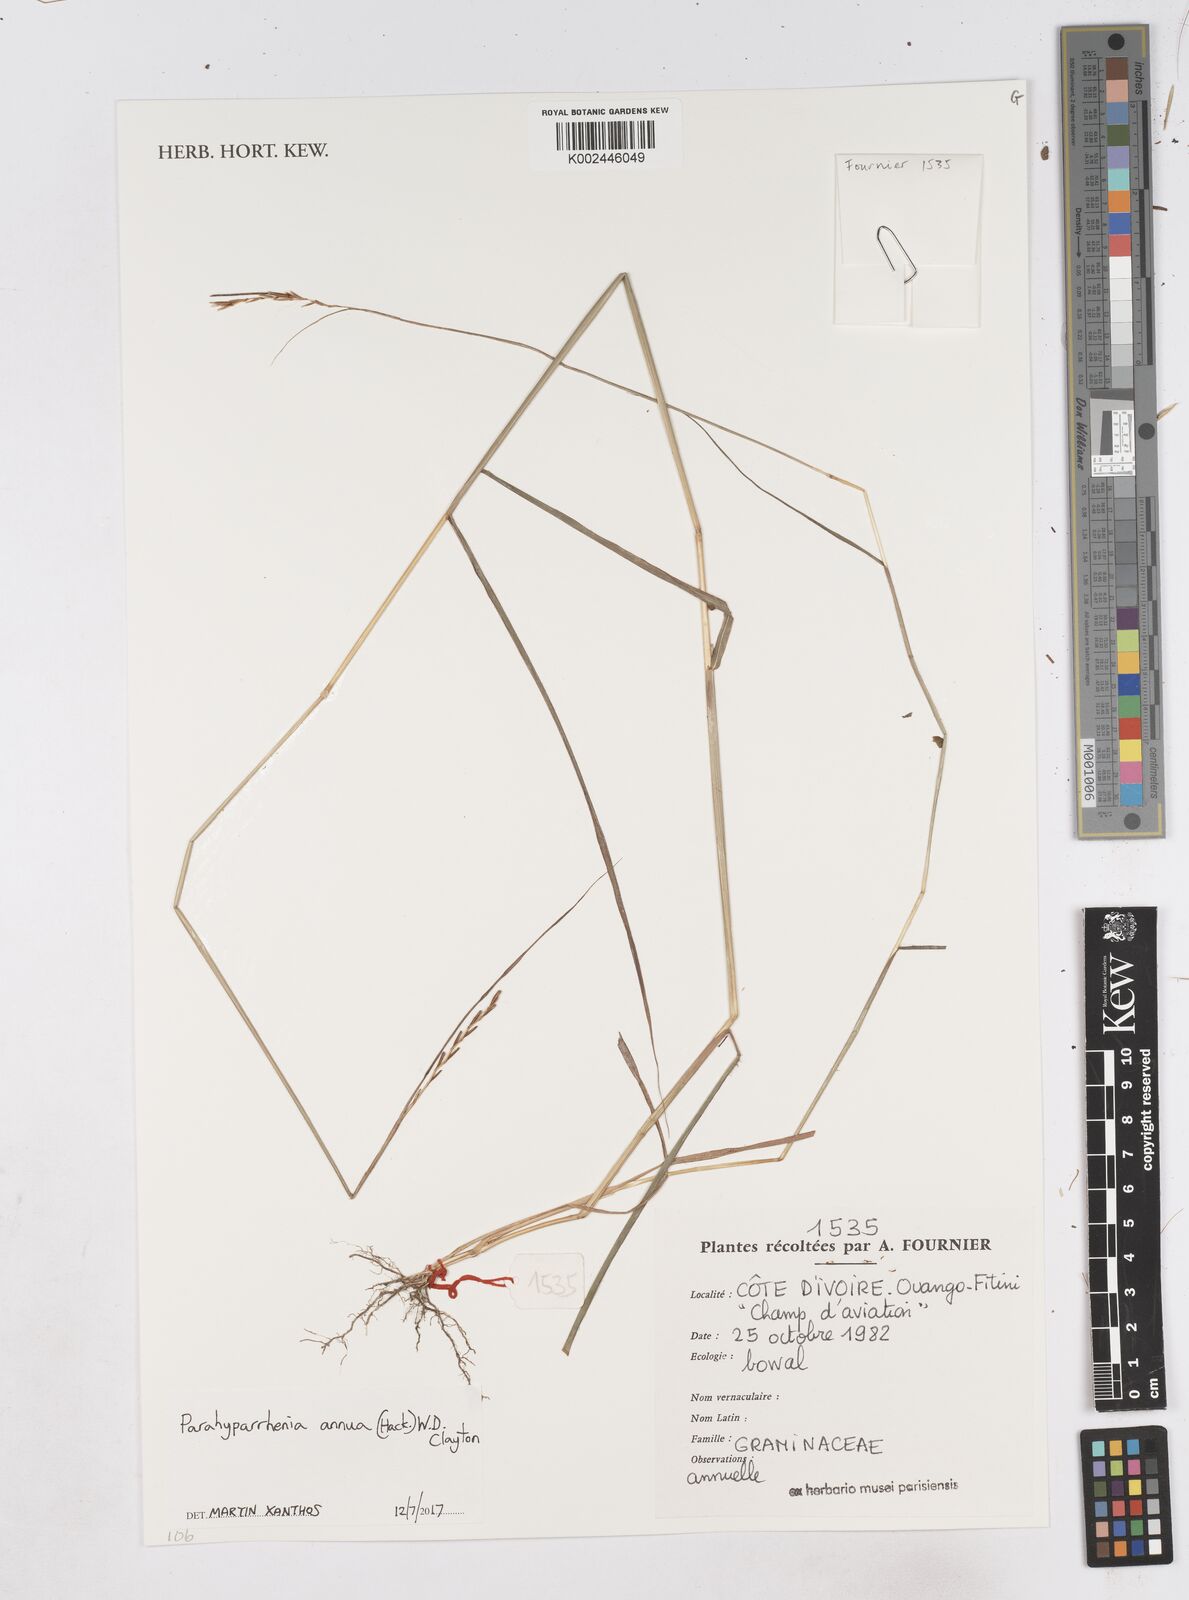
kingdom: Plantae
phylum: Tracheophyta
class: Liliopsida
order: Poales
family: Poaceae
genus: Parahyparrhenia
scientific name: Parahyparrhenia annua
